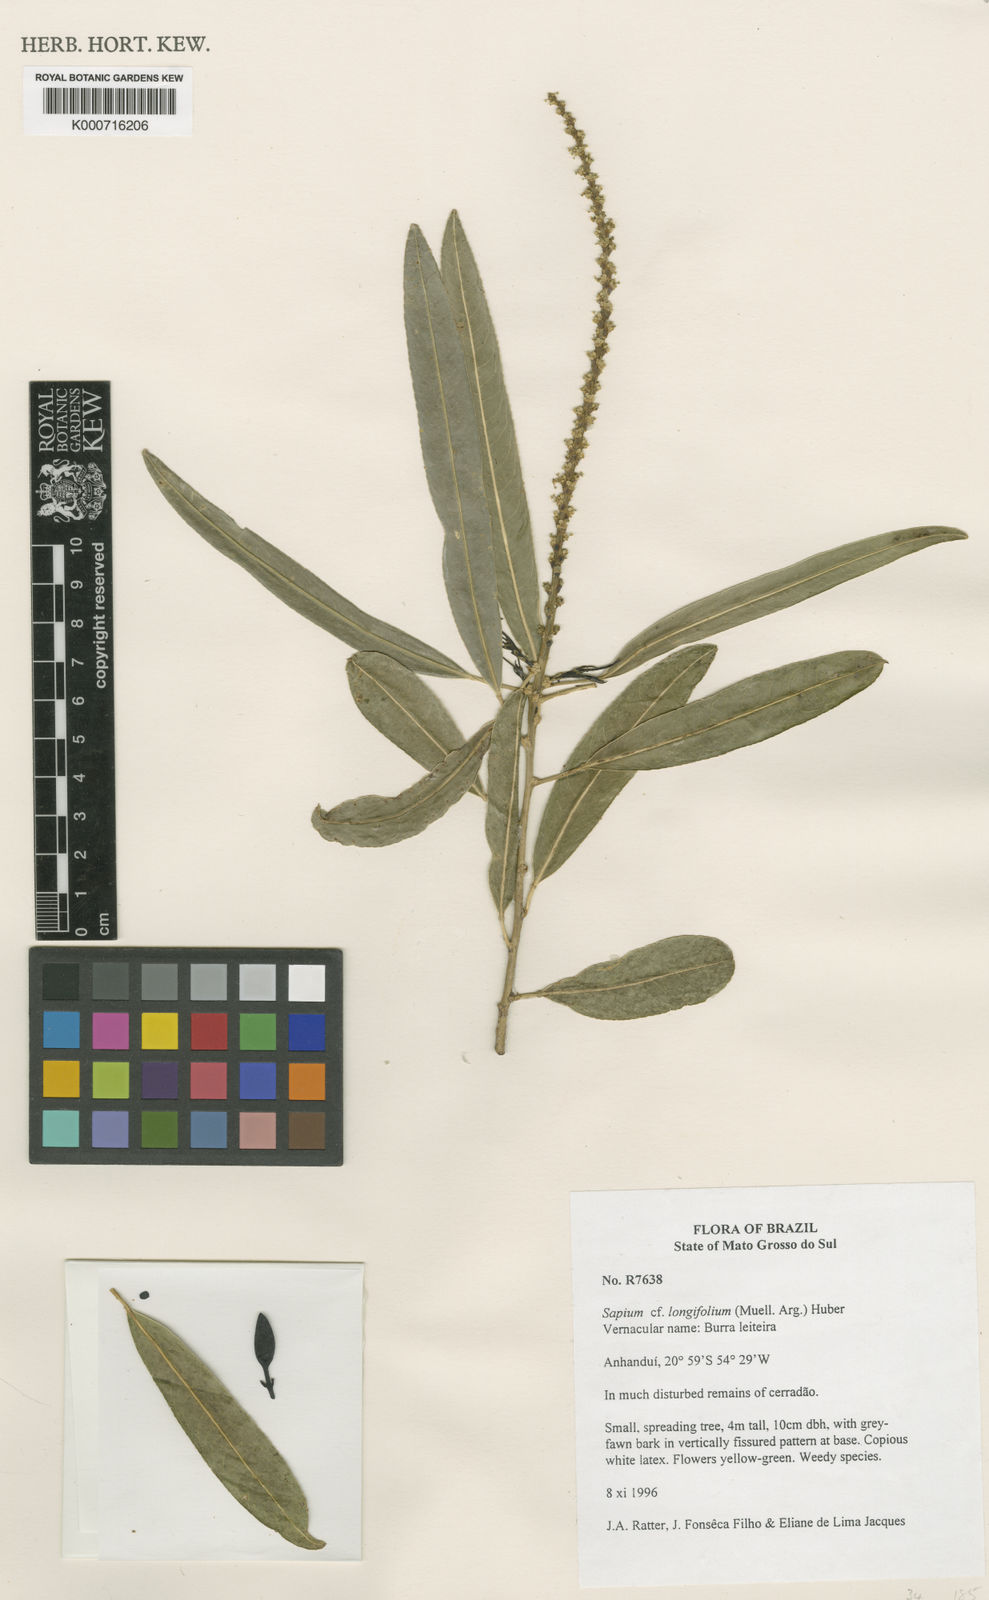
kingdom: Plantae
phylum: Tracheophyta
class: Magnoliopsida
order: Malpighiales
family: Euphorbiaceae
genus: Sapium
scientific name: Sapium
